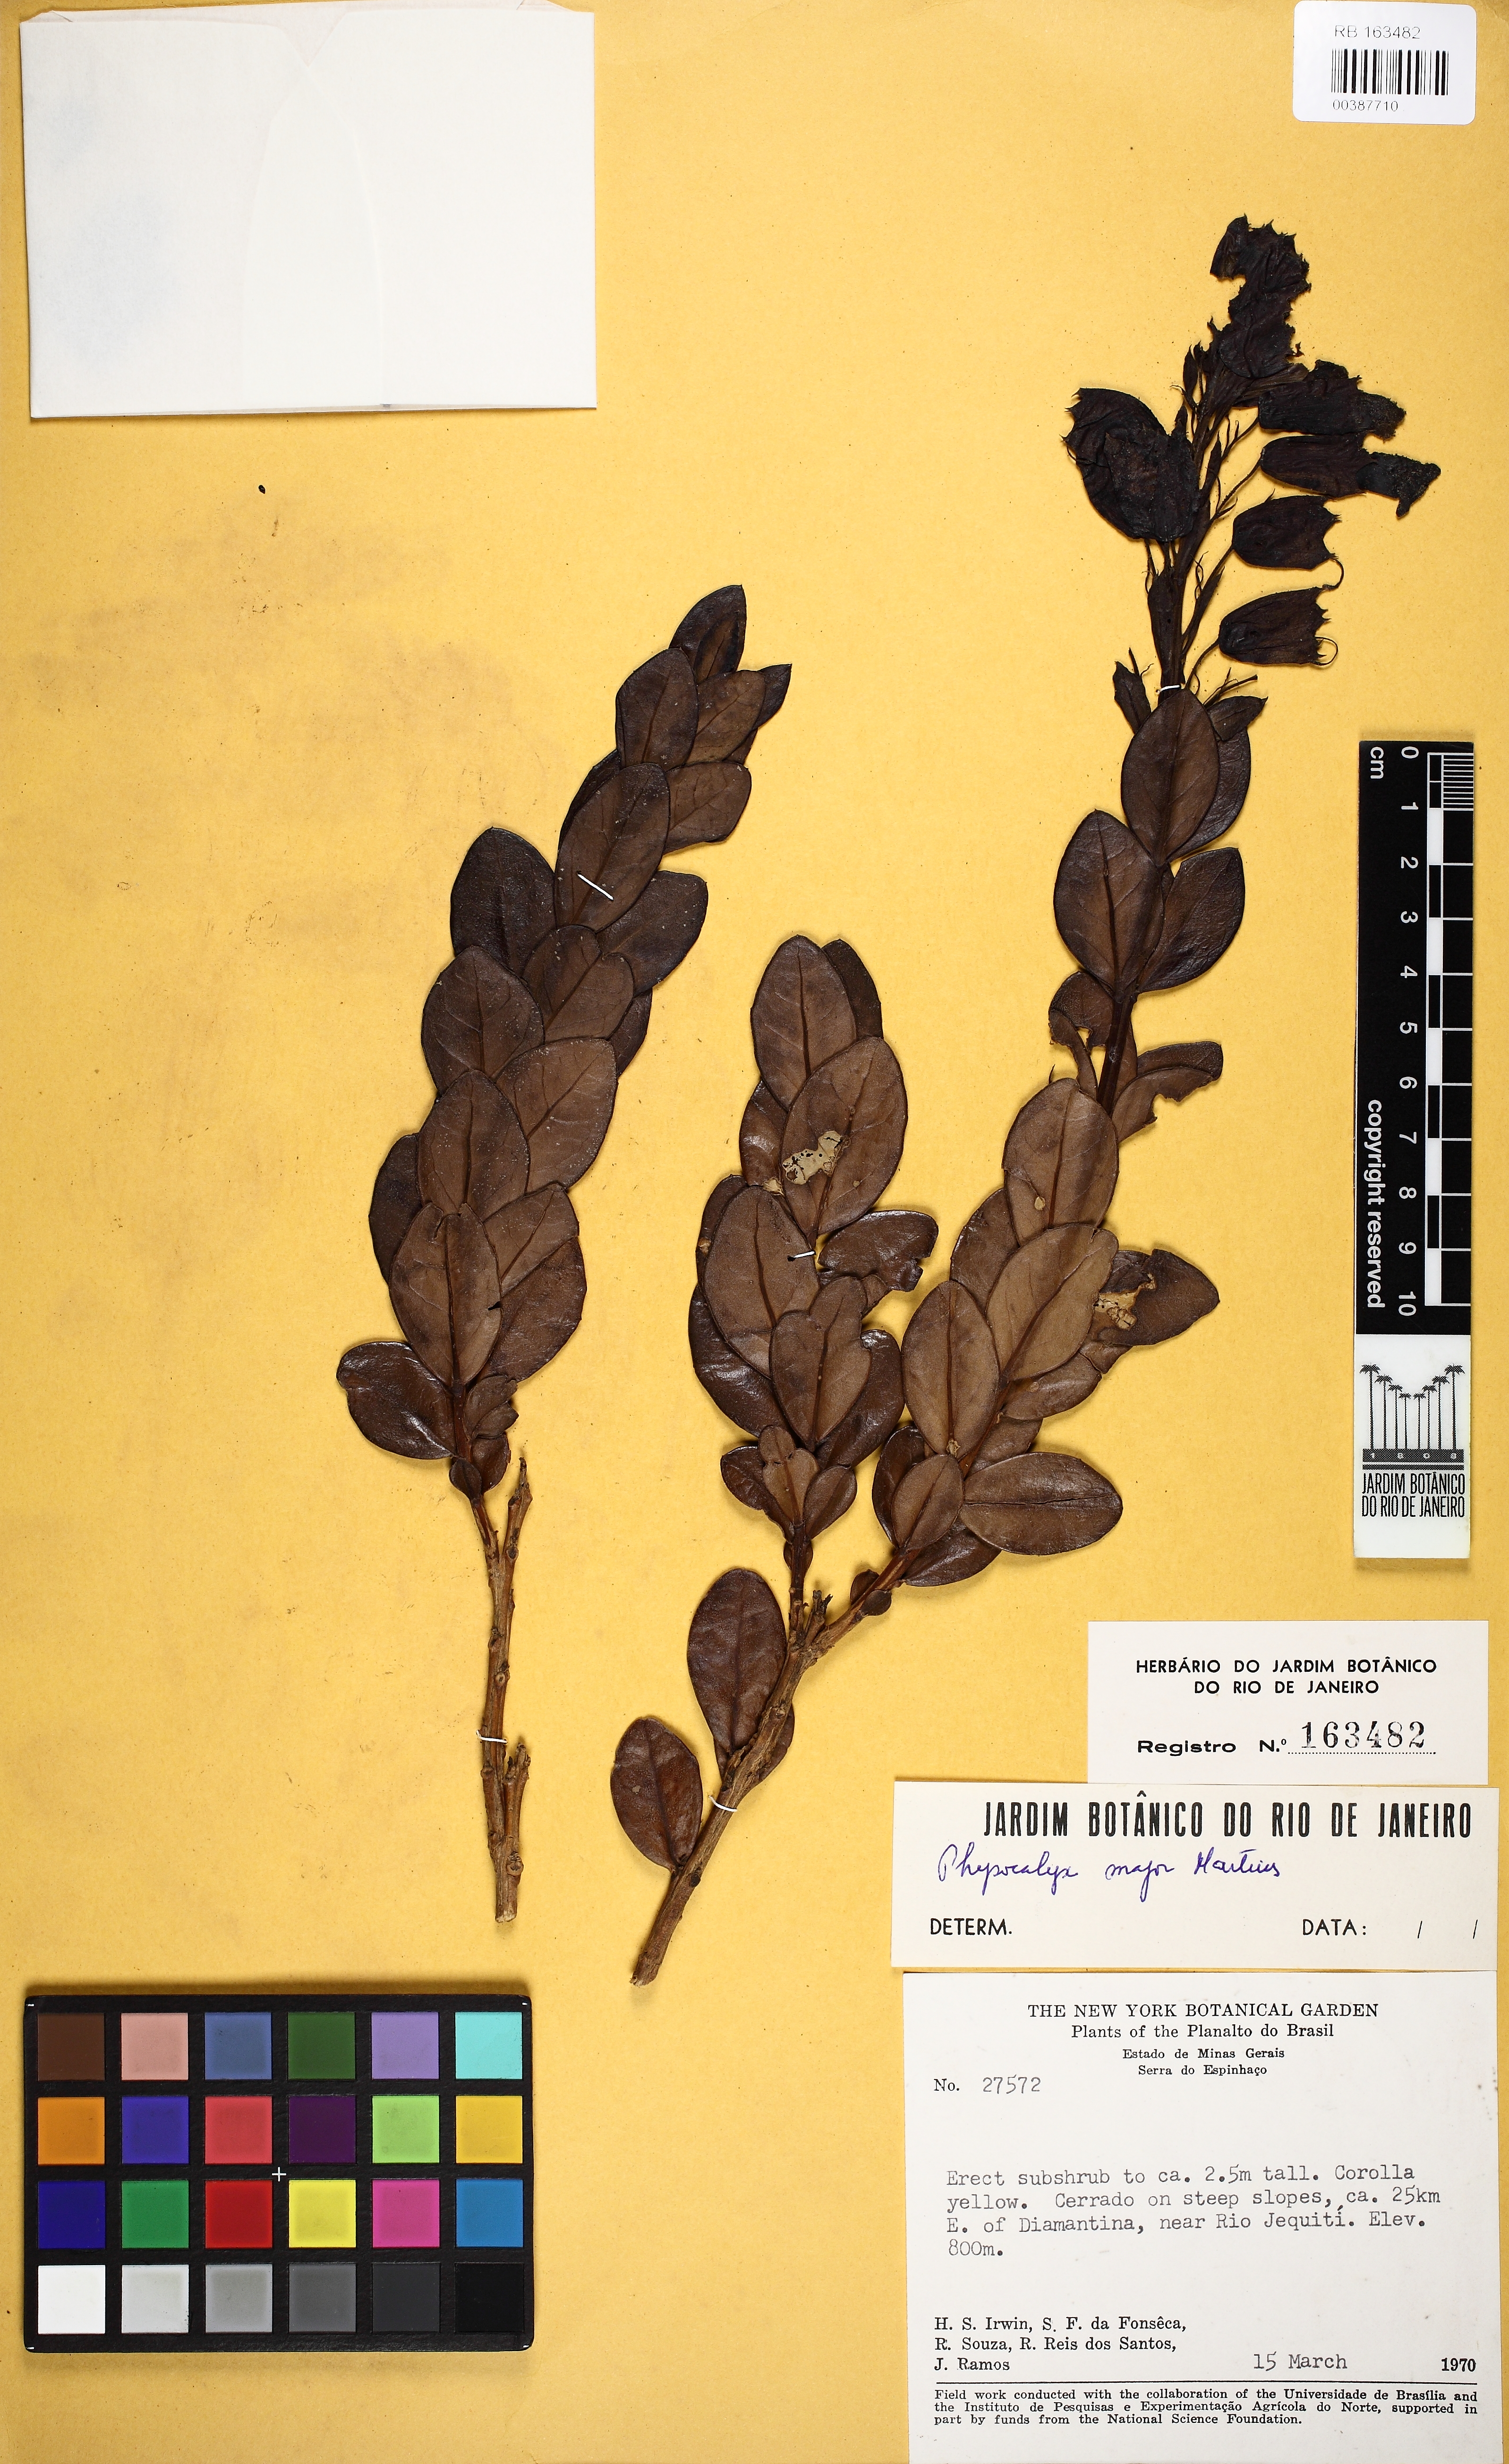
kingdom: Plantae
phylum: Tracheophyta
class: Magnoliopsida
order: Lamiales
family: Orobanchaceae
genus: Physocalyx
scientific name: Physocalyx major
